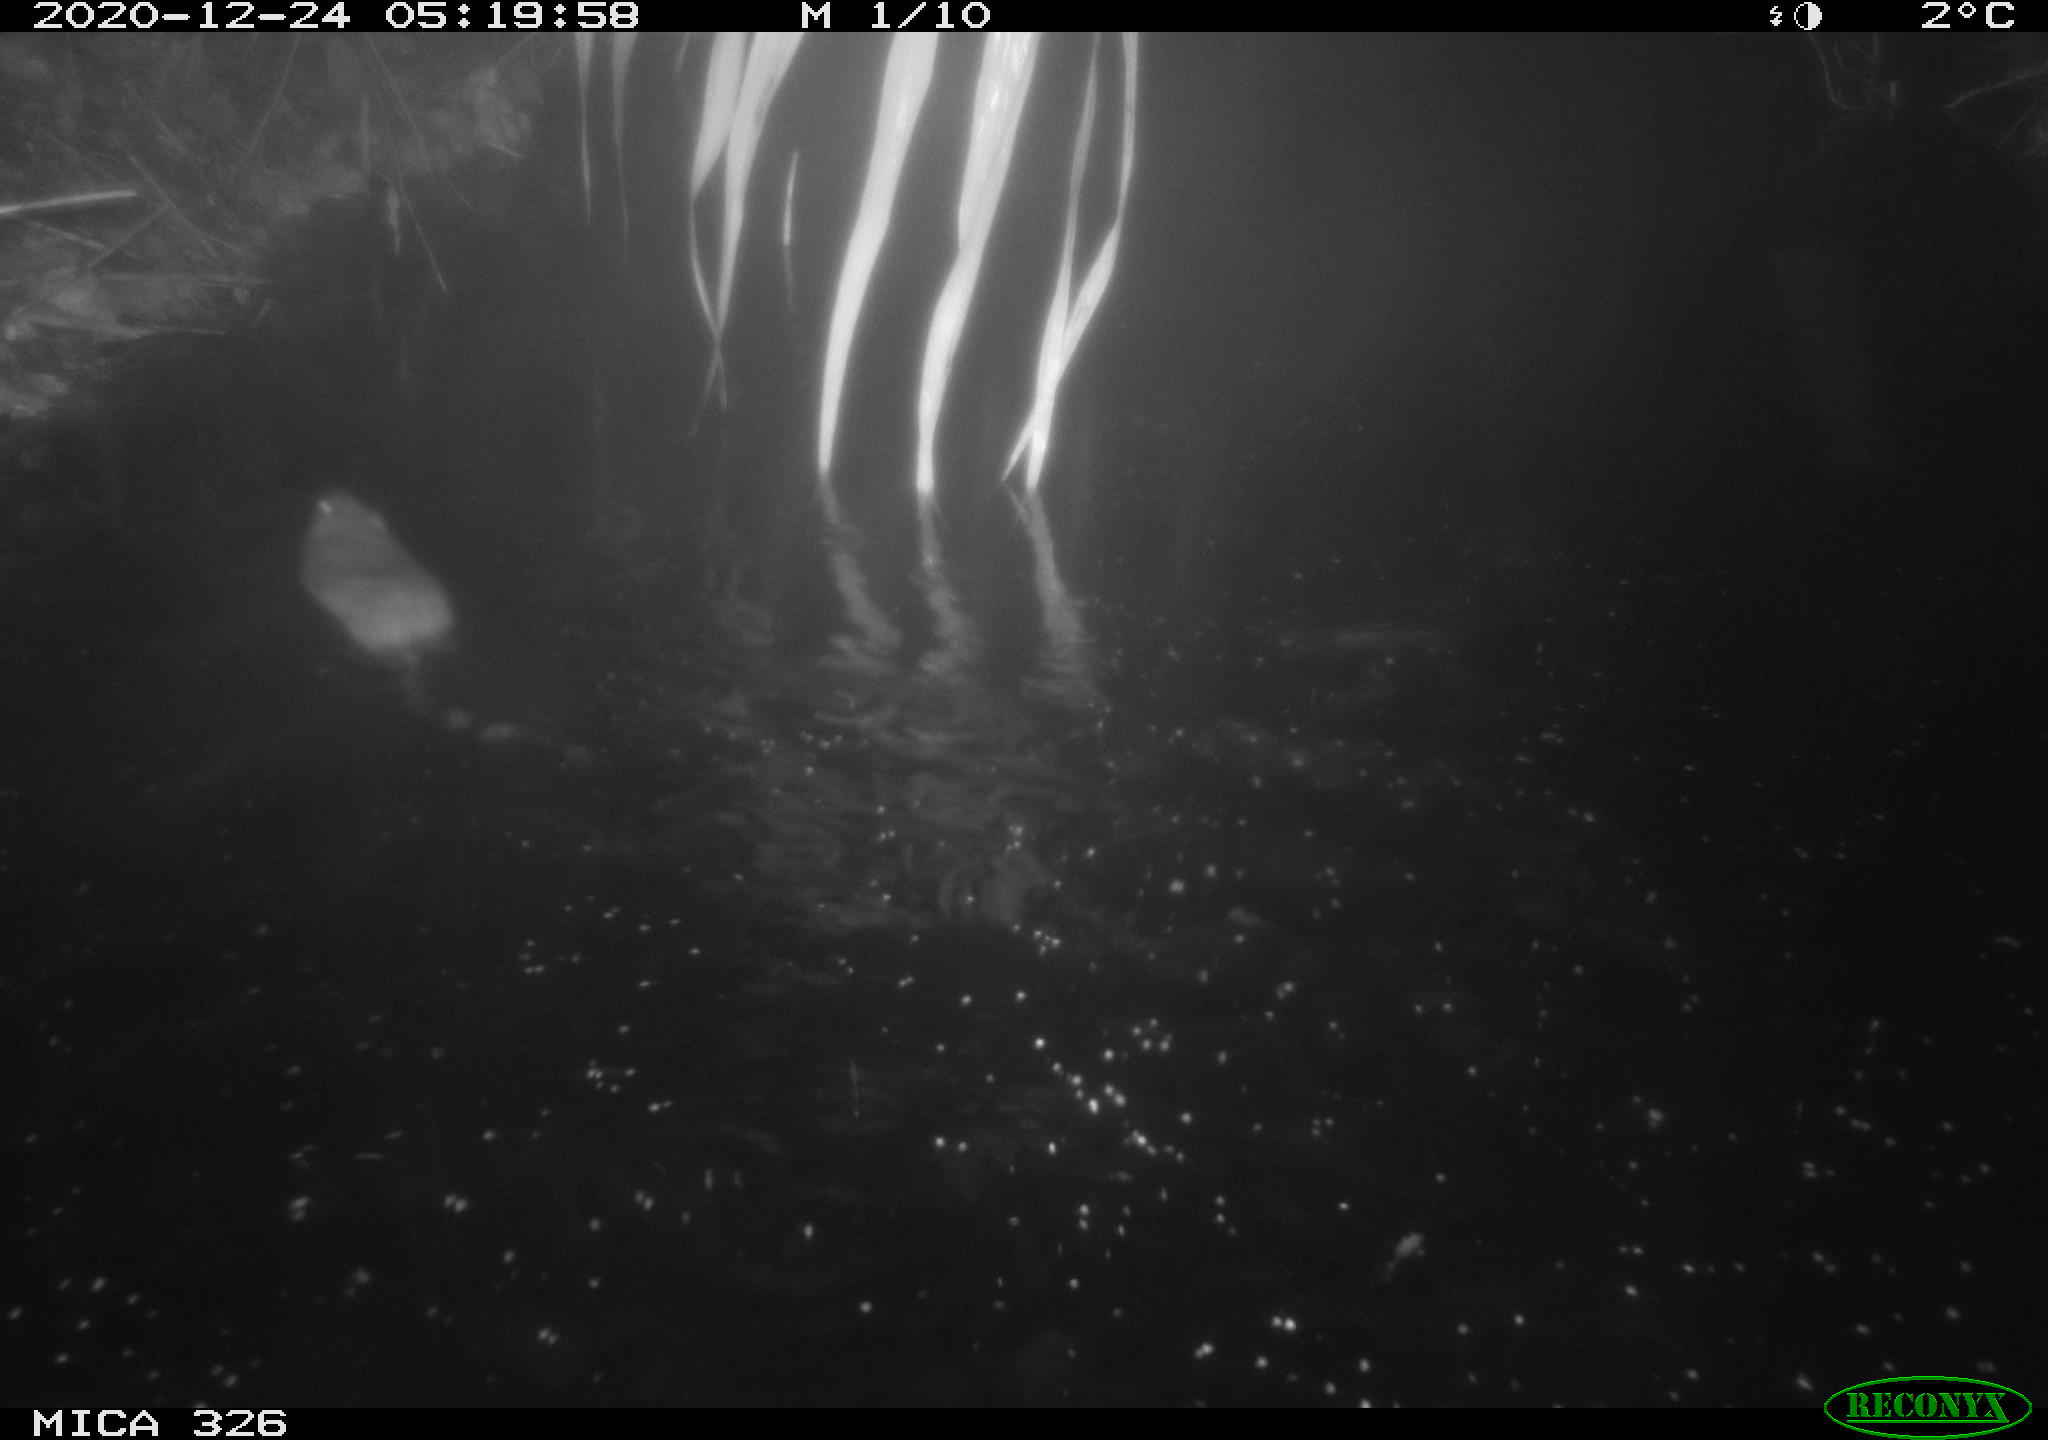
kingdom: Animalia
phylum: Chordata
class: Mammalia
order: Rodentia
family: Cricetidae
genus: Ondatra
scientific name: Ondatra zibethicus
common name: Muskrat
